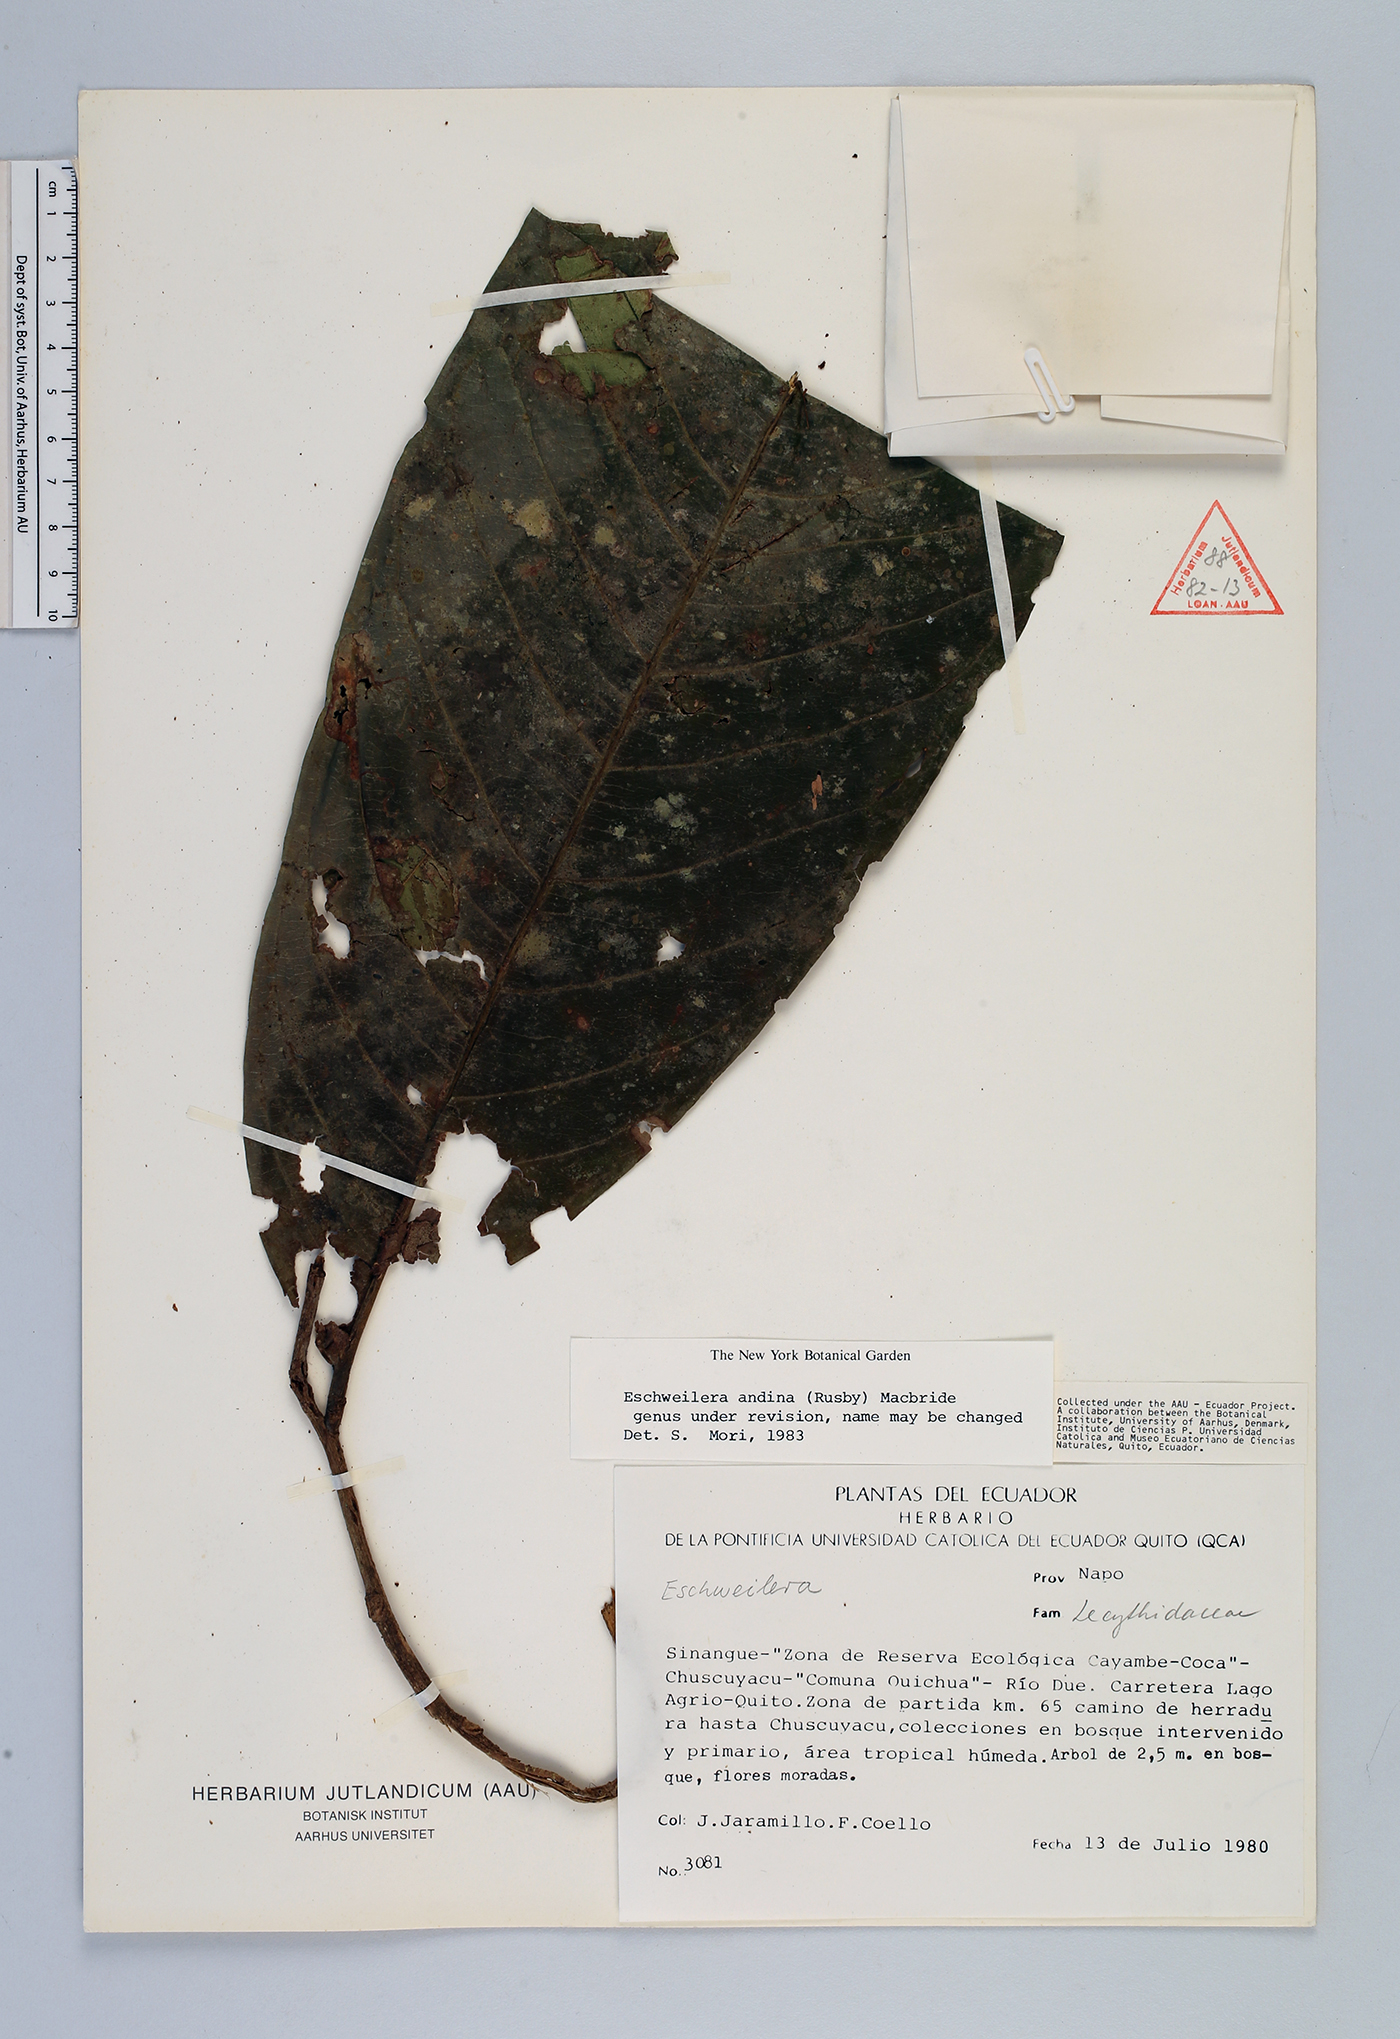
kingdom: Plantae
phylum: Tracheophyta
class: Magnoliopsida
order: Ericales
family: Lecythidaceae
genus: Eschweilera
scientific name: Eschweilera andina
